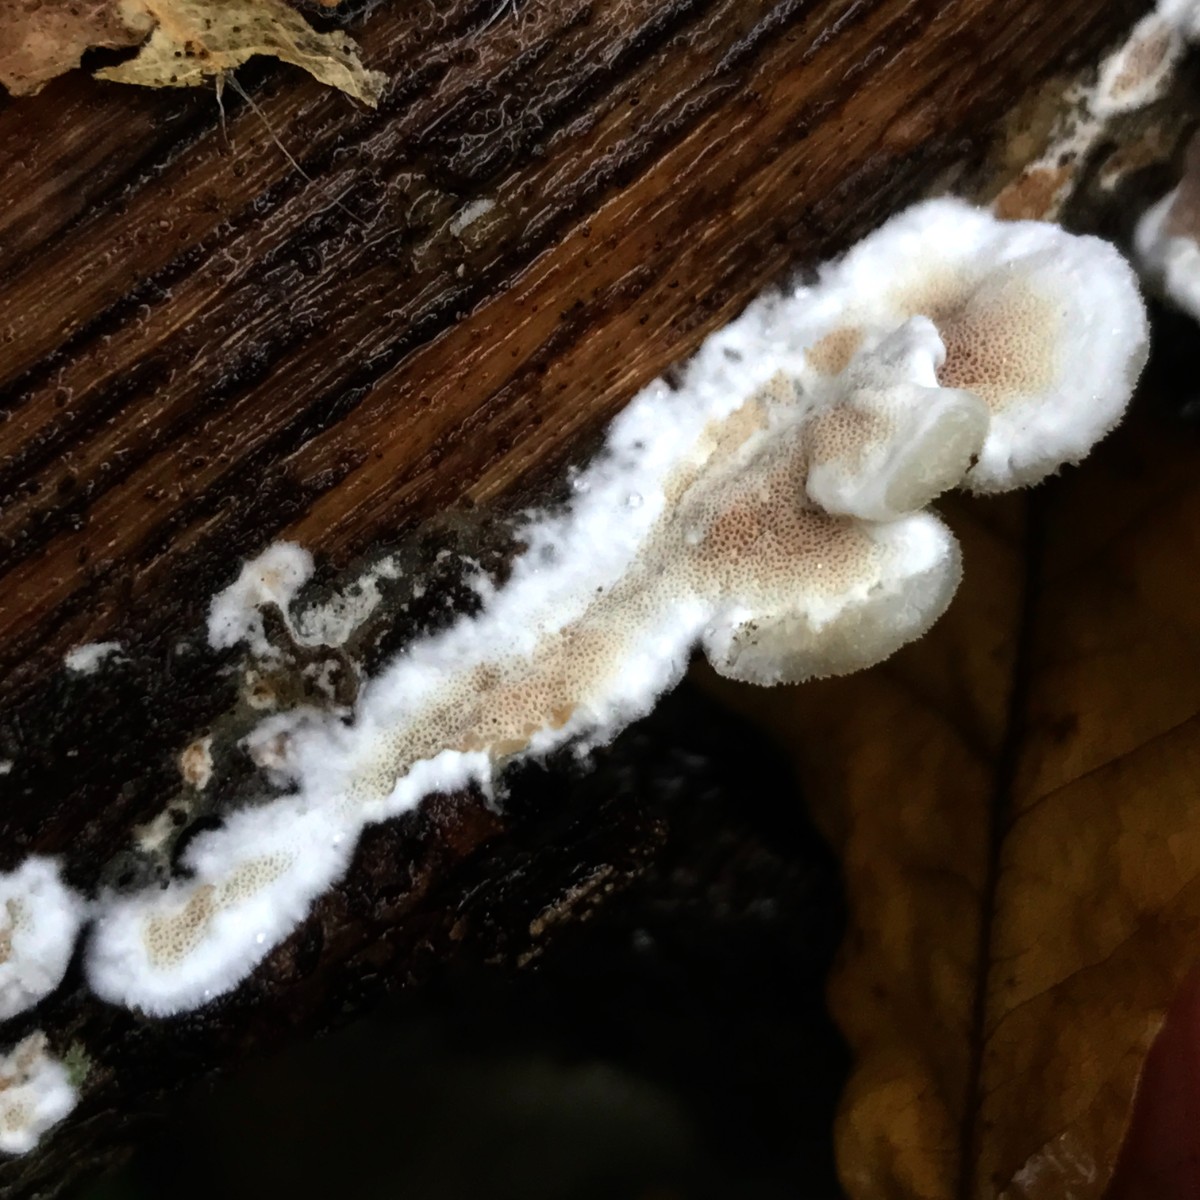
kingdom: Fungi
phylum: Basidiomycota
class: Agaricomycetes
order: Polyporales
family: Irpicaceae
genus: Vitreoporus
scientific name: Vitreoporus dichrous
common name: tofarvet foldporesvamp
